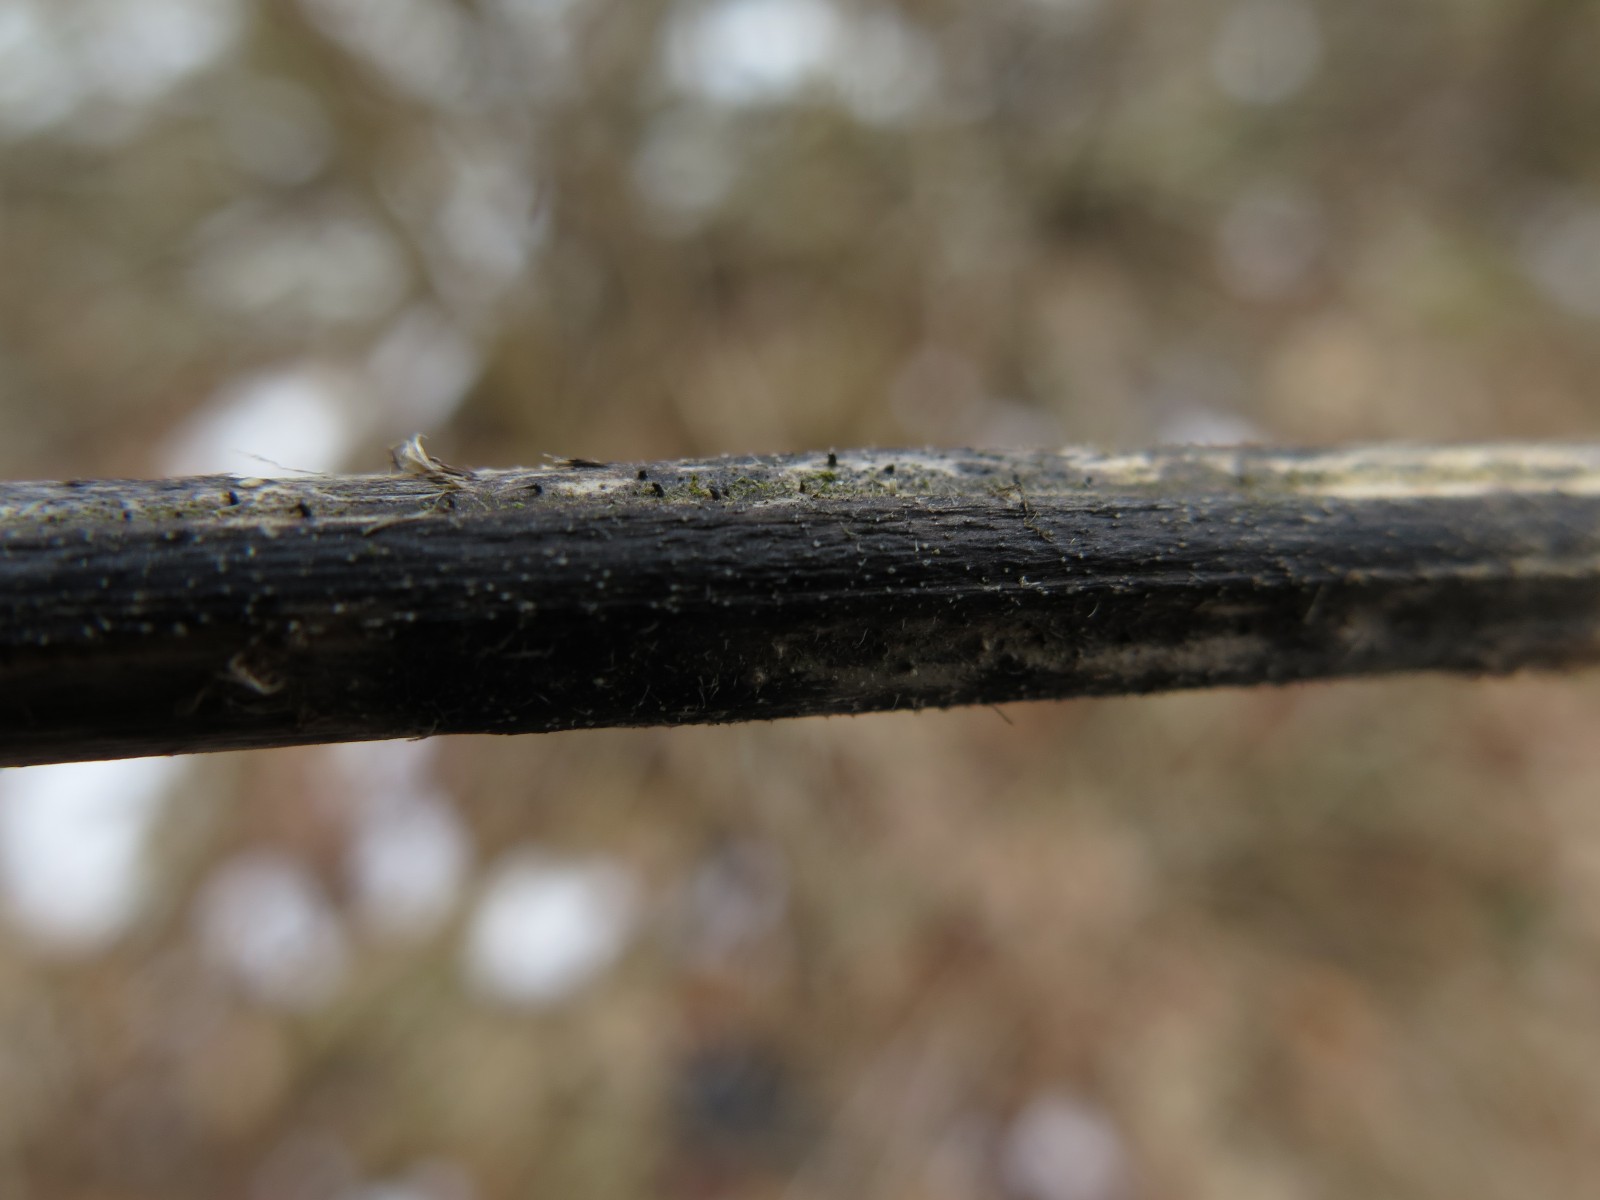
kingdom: Fungi
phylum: Ascomycota
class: Sordariomycetes
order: Diaporthales
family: Diaporthaceae
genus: Diaporthopsis
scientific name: Diaporthopsis urticae
